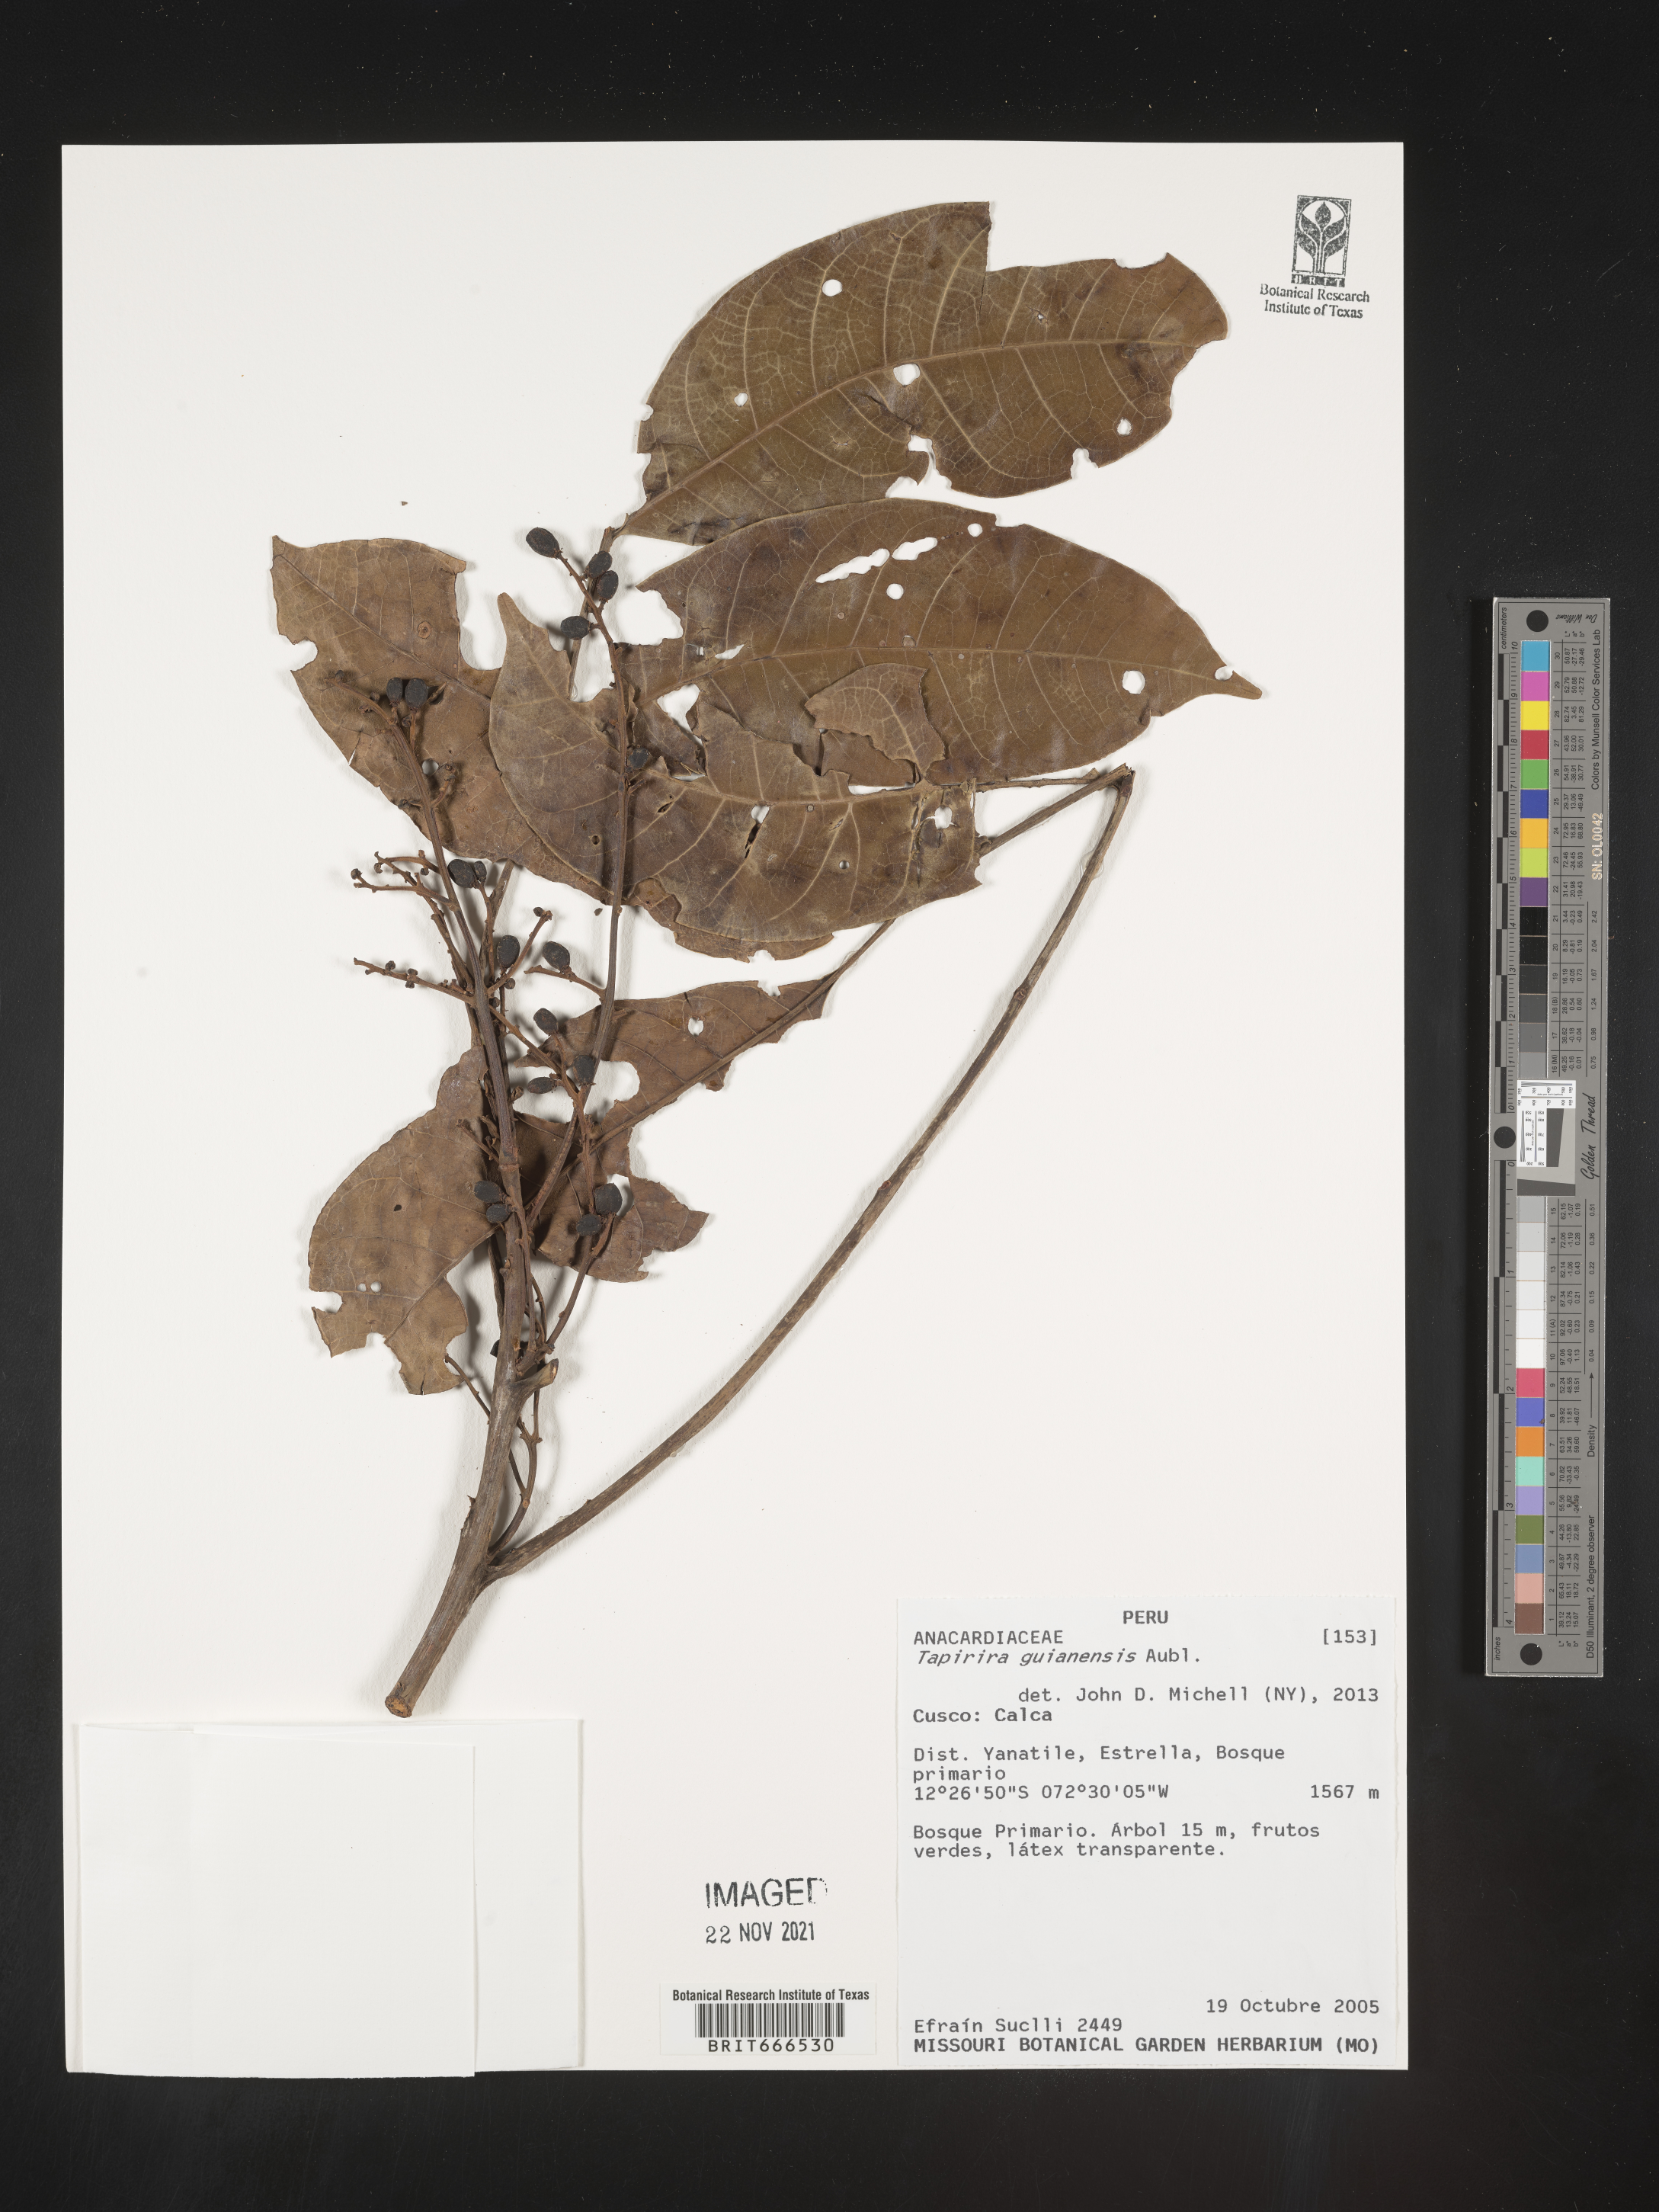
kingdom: Plantae
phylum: Tracheophyta
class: Magnoliopsida
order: Sapindales
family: Anacardiaceae
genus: Tapirira
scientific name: Tapirira
